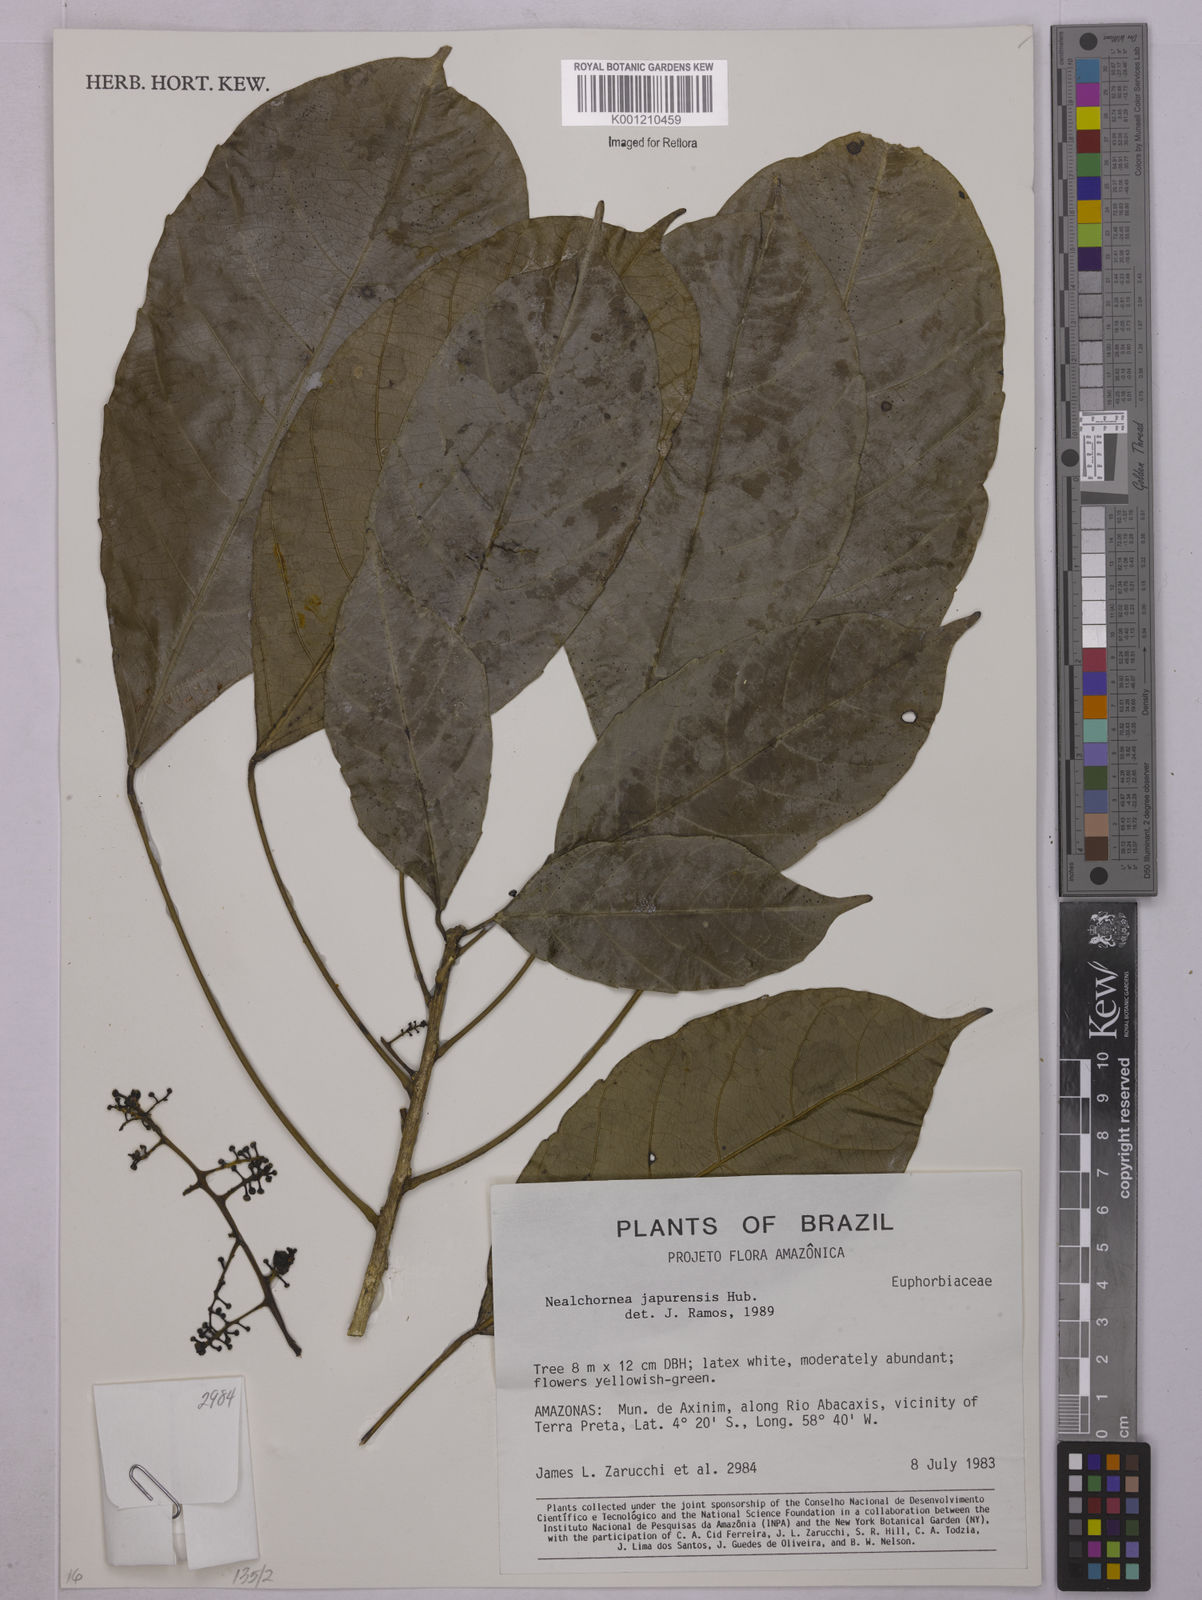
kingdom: Plantae
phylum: Tracheophyta
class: Magnoliopsida
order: Malpighiales
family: Euphorbiaceae
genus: Nealchornea
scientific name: Nealchornea yapurensis
